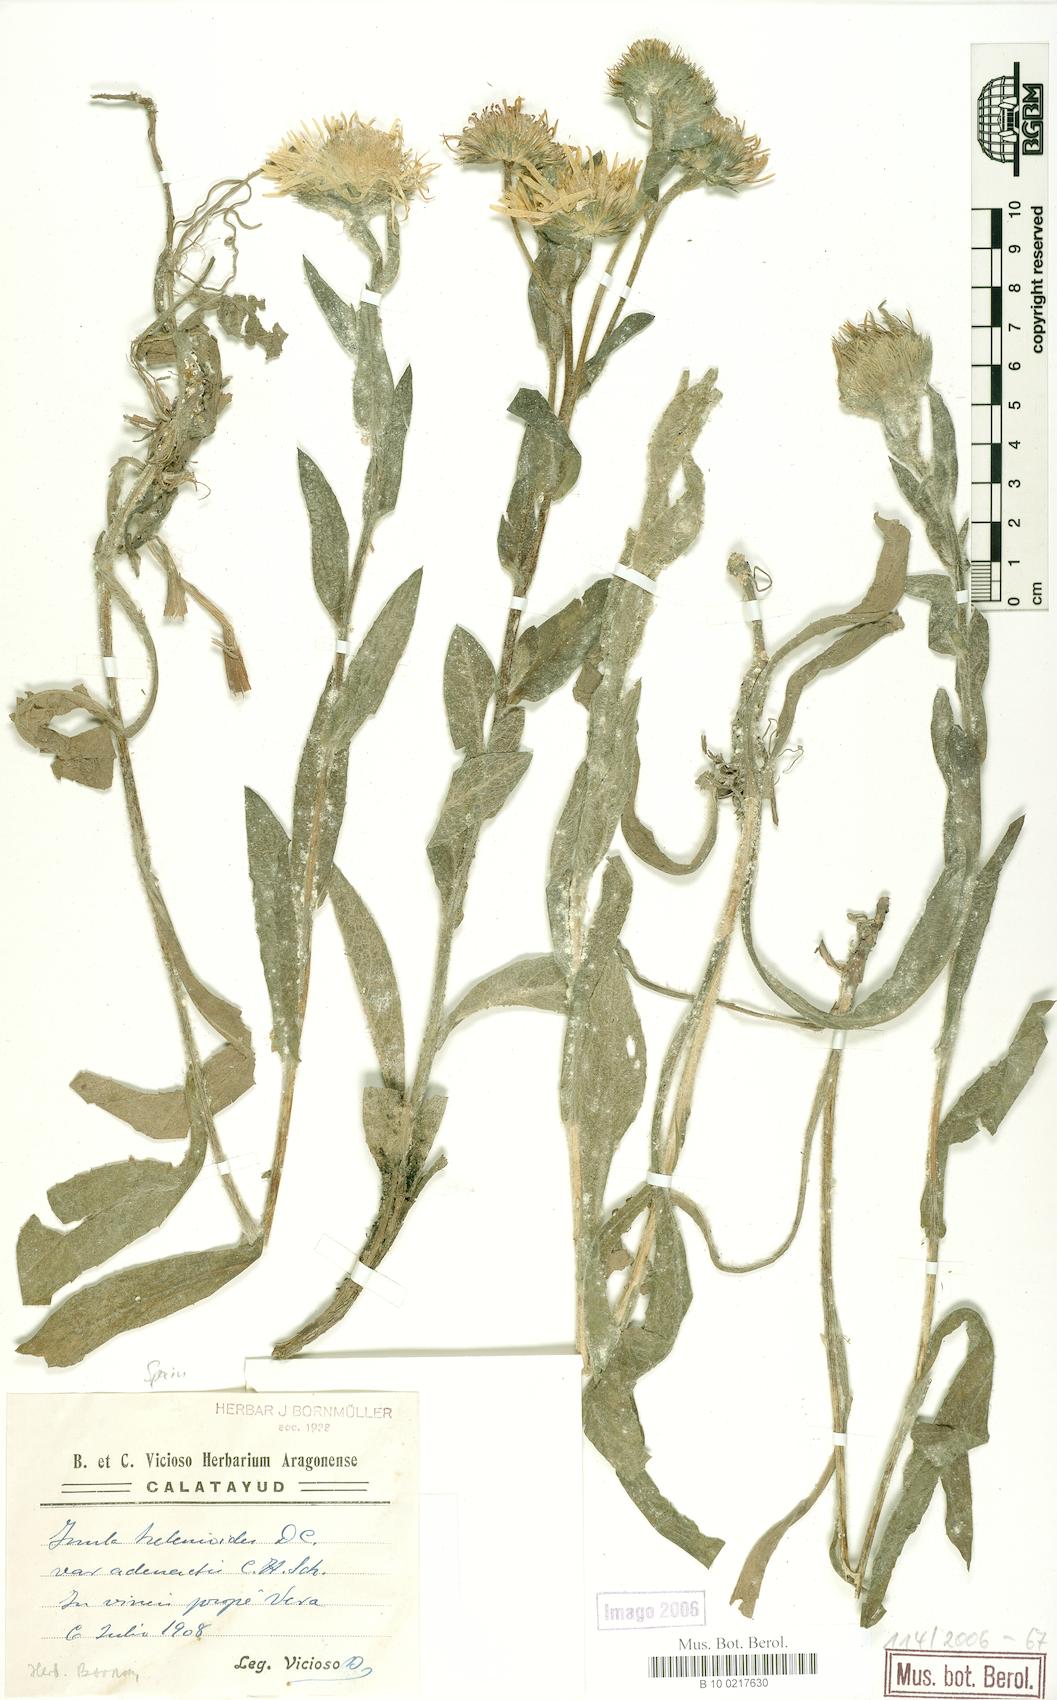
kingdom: Plantae
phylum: Tracheophyta
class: Magnoliopsida
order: Asterales
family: Asteraceae
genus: Pentanema
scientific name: Pentanema helenioides
